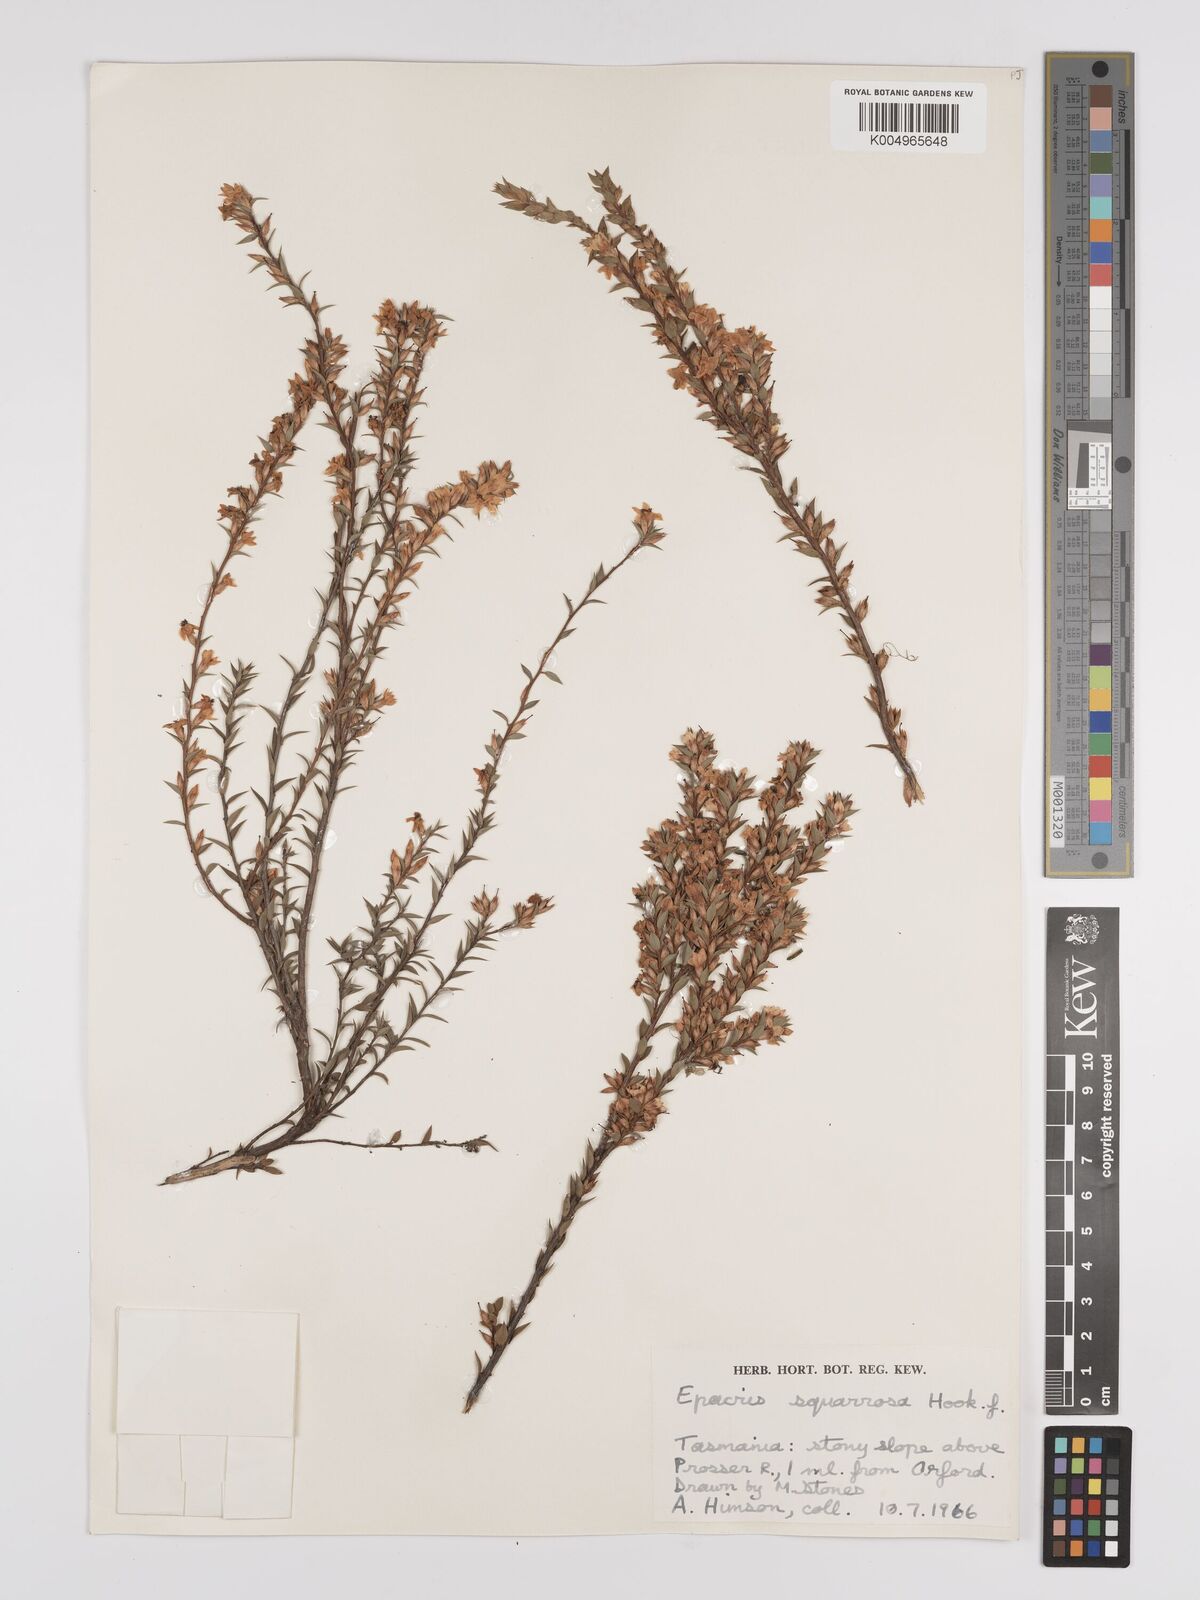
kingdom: Plantae
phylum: Tracheophyta
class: Magnoliopsida
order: Ericales
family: Ericaceae
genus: Epacris
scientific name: Epacris tasmanica
